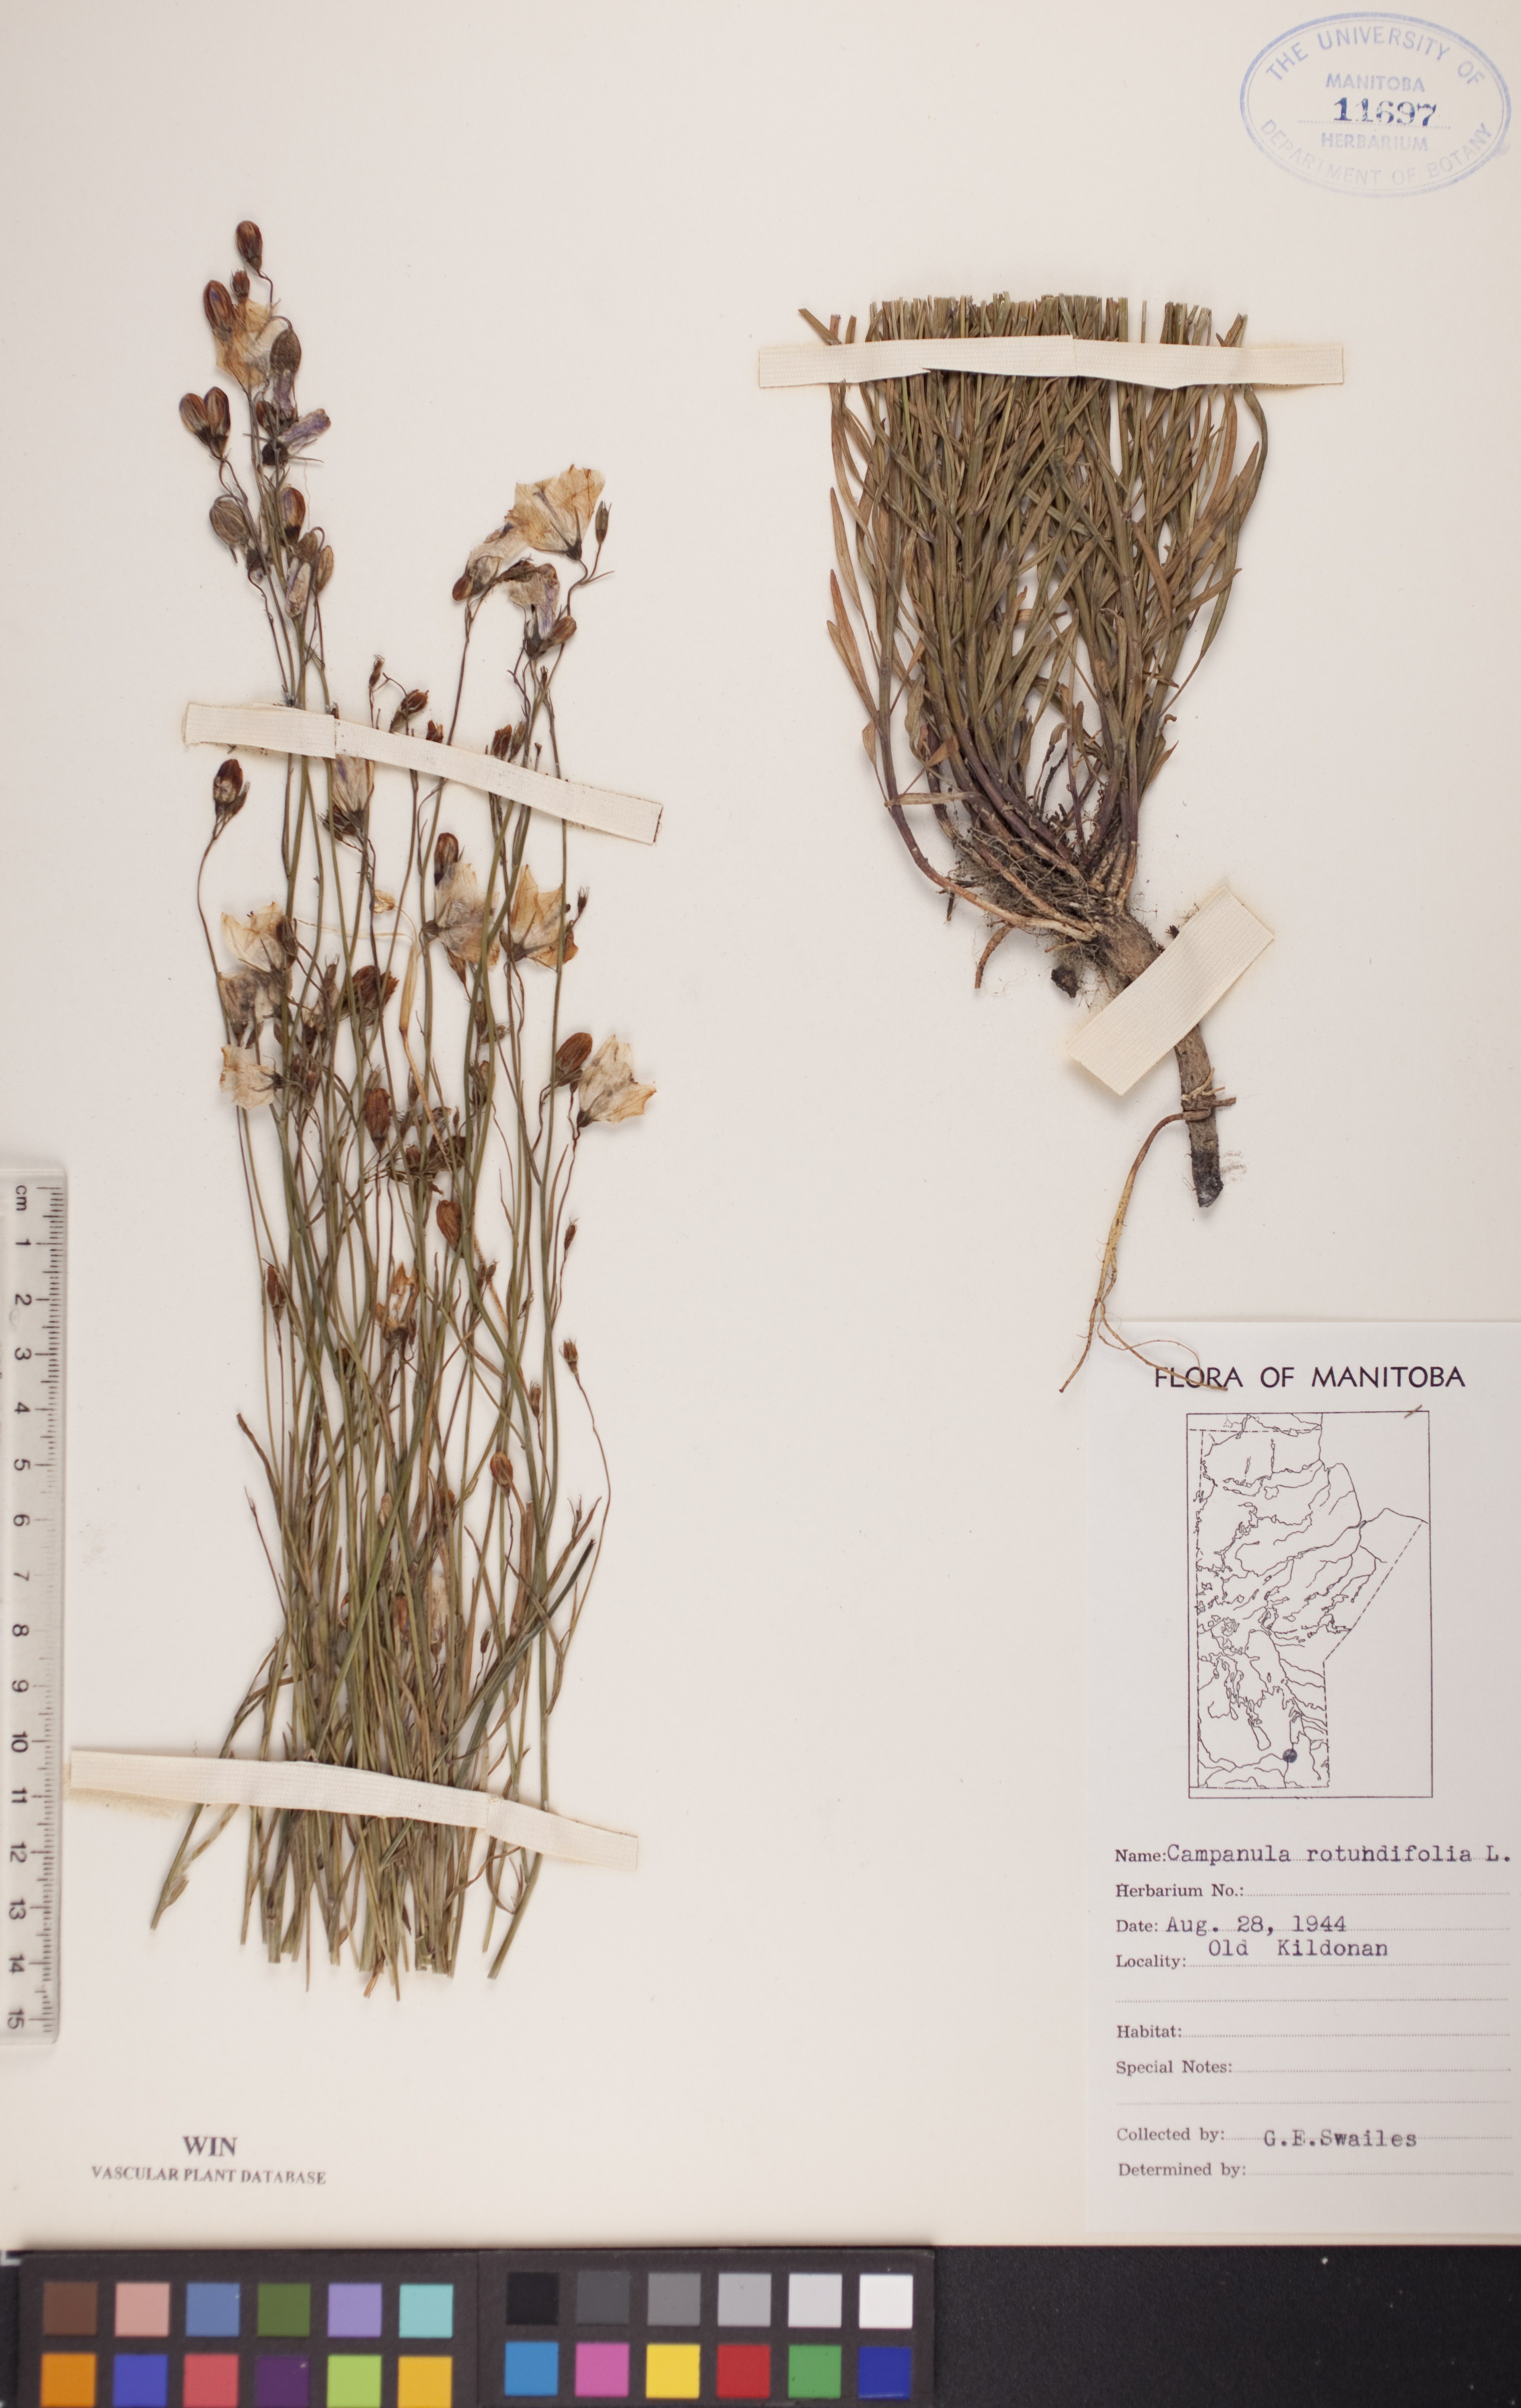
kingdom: Plantae
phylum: Tracheophyta
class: Magnoliopsida
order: Asterales
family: Campanulaceae
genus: Campanula
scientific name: Campanula rotundifolia
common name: Harebell
